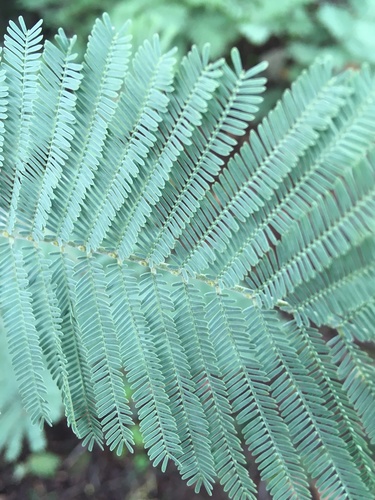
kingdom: Plantae
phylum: Tracheophyta
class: Magnoliopsida
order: Fabales
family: Fabaceae
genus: Acacia
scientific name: Acacia dealbata
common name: Silver wattle
